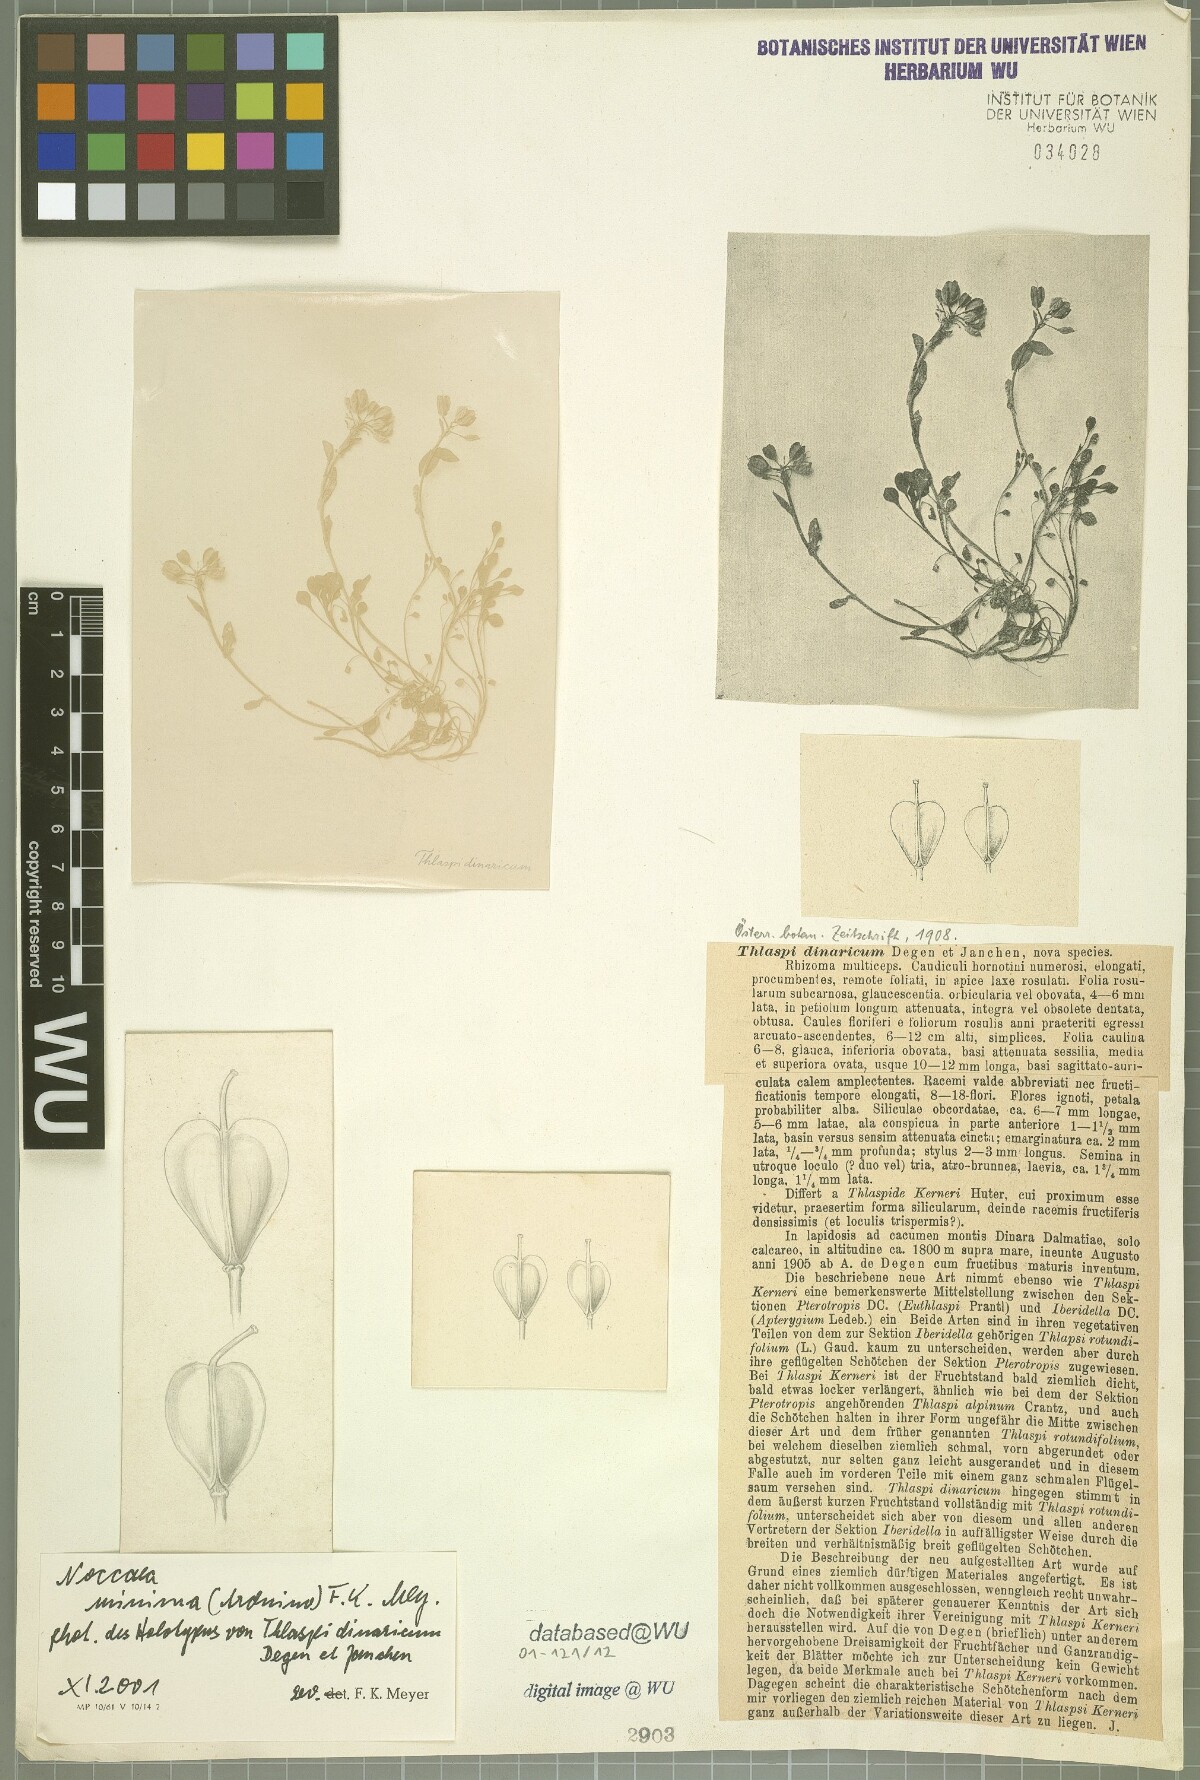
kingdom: Plantae
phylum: Tracheophyta
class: Magnoliopsida
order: Brassicales
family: Brassicaceae
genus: Noccaea
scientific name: Noccaea praecox
